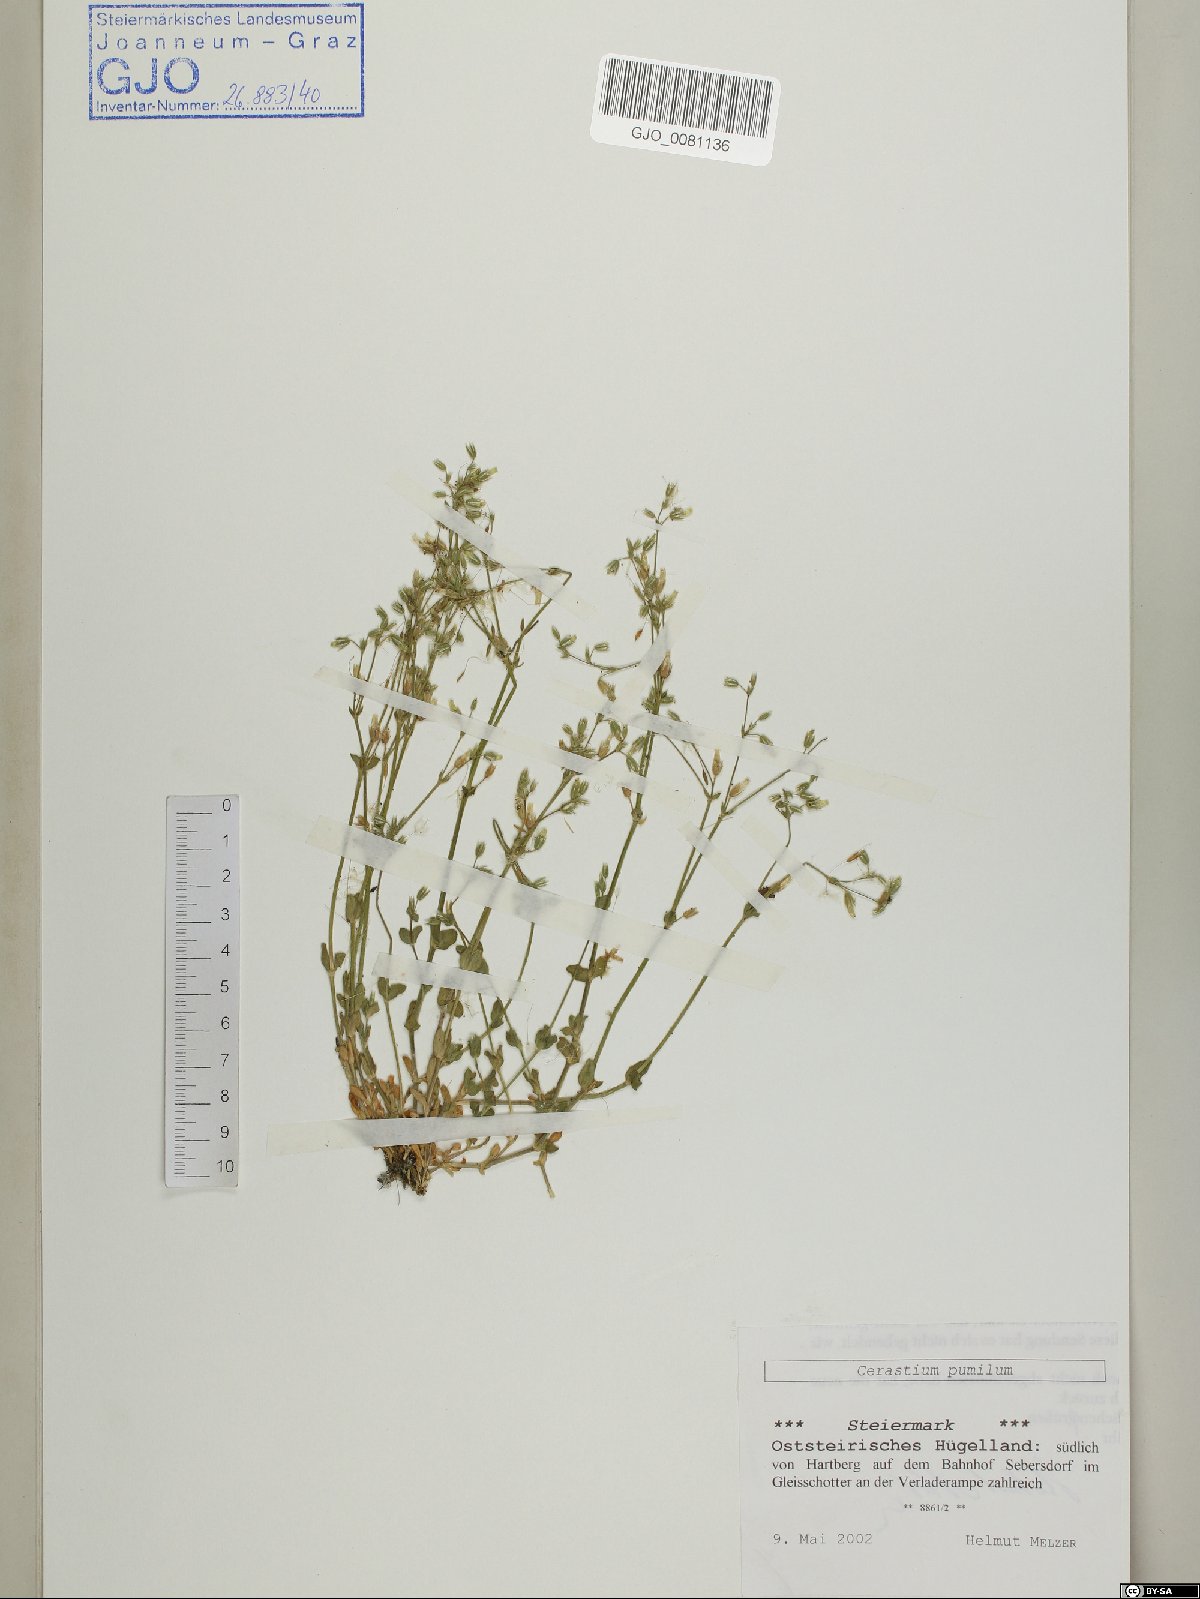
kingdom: Plantae
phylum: Tracheophyta
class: Magnoliopsida
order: Caryophyllales
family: Caryophyllaceae
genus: Cerastium
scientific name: Cerastium pumilum
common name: Dwarf mouse-ear
